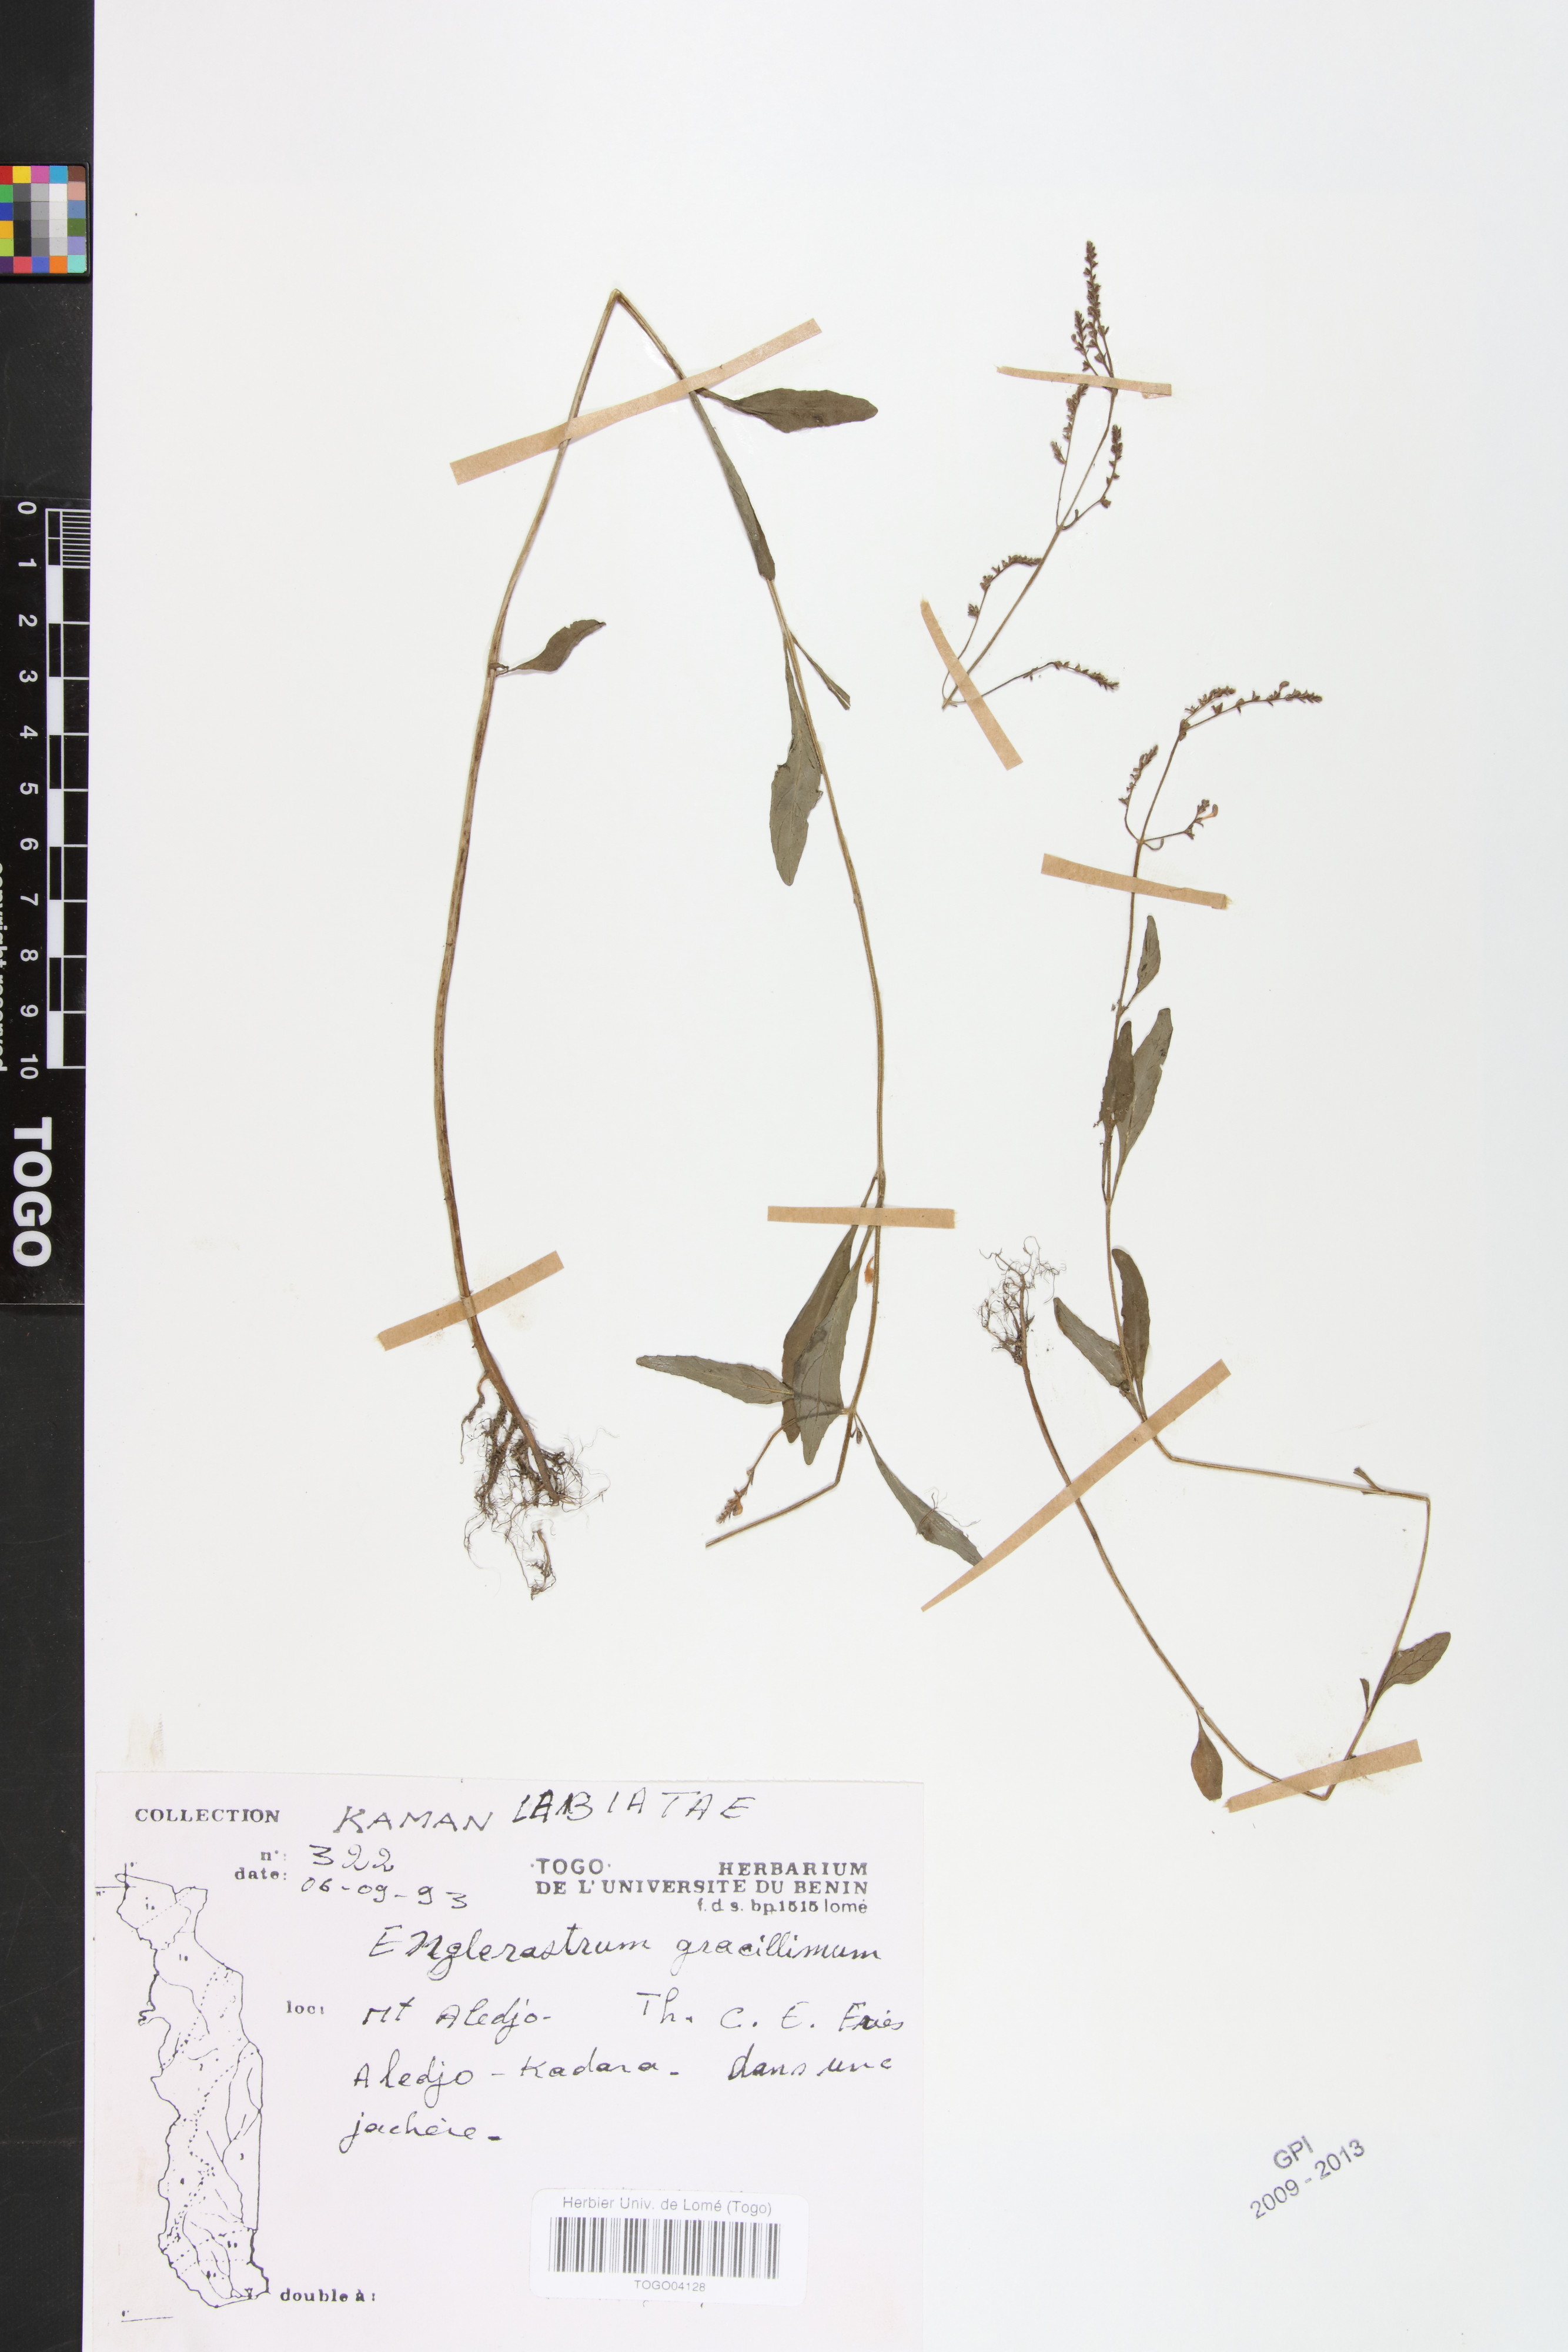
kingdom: Plantae
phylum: Tracheophyta
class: Magnoliopsida
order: Lamiales
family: Lamiaceae
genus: Coleus
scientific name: Coleus gracillimus
